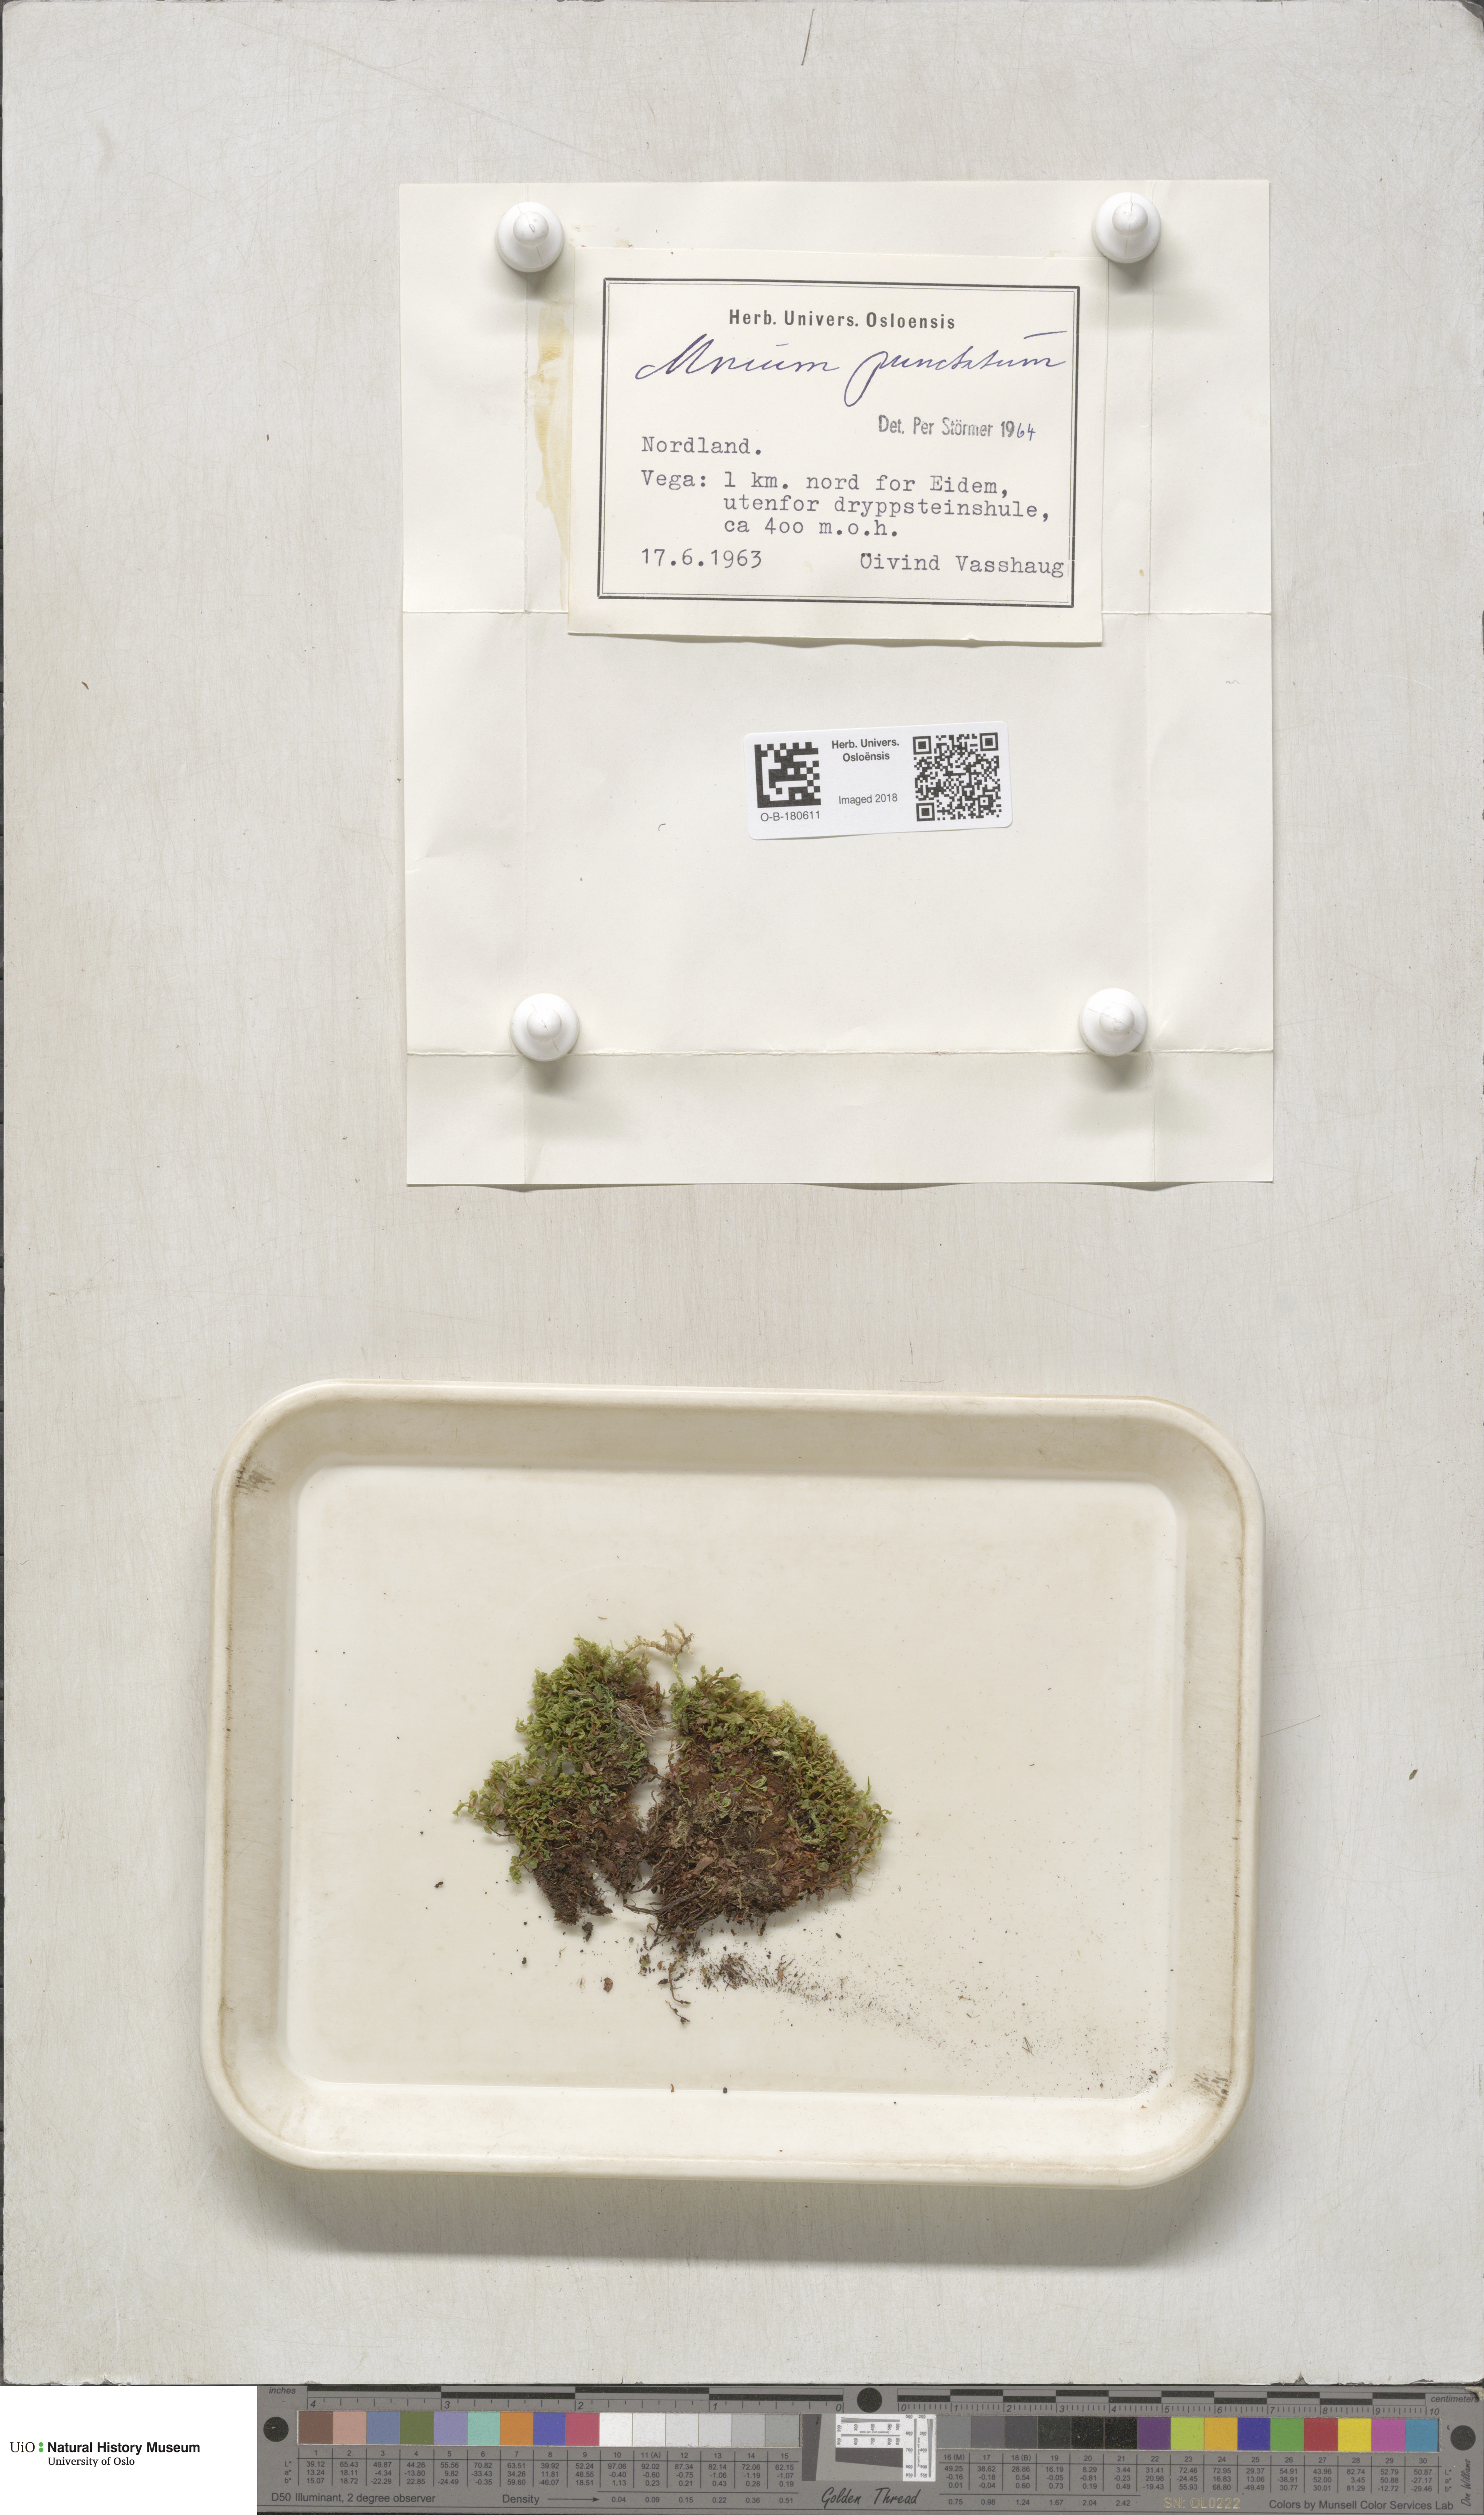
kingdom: Plantae
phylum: Bryophyta
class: Bryopsida
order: Bryales
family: Mniaceae
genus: Rhizomnium
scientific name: Rhizomnium punctatum
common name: Dotted leafy moss
